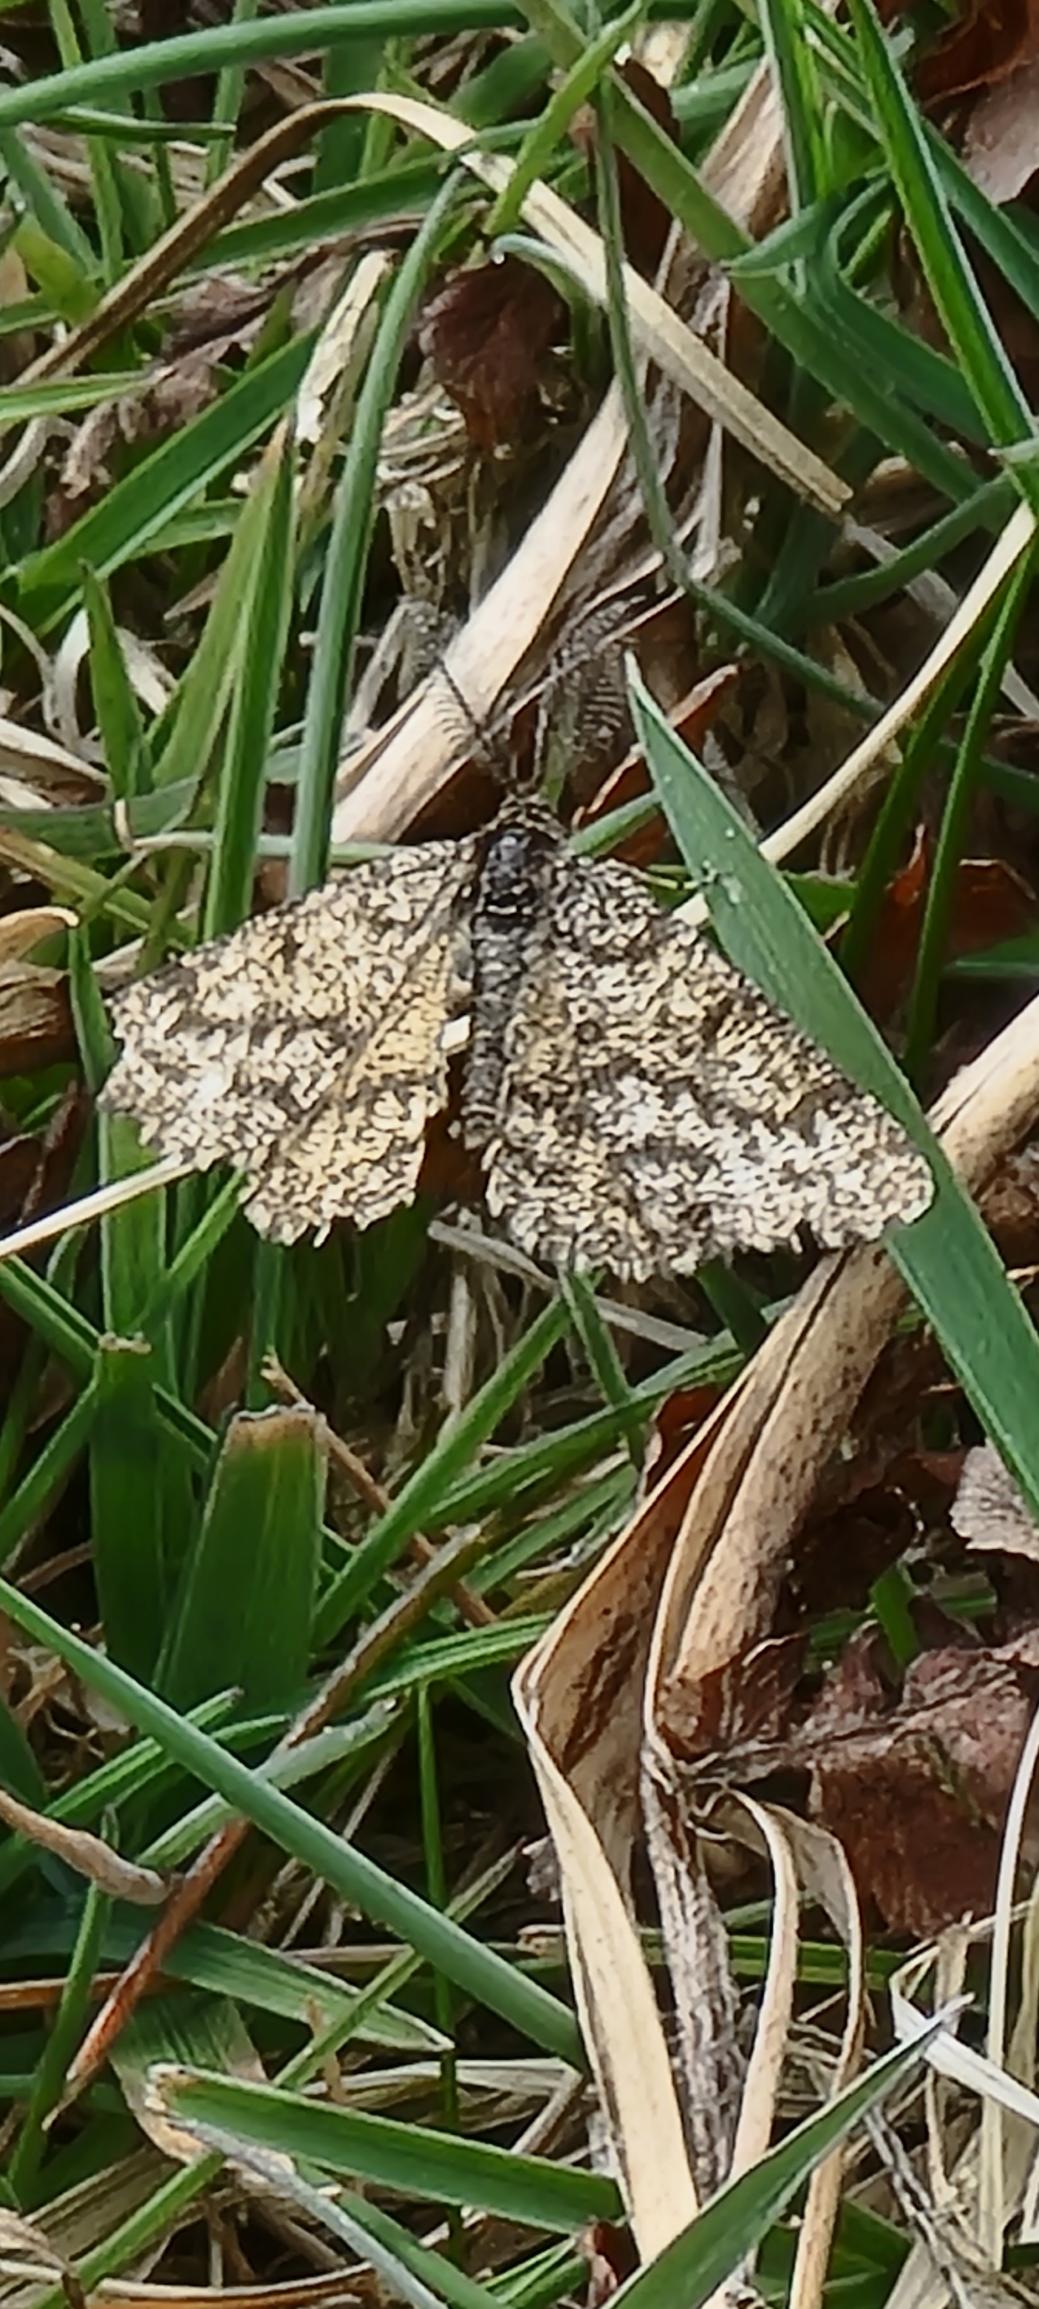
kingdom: Animalia
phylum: Arthropoda
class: Insecta
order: Lepidoptera
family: Geometridae
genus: Ematurga
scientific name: Ematurga atomaria
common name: Lyngmåler
